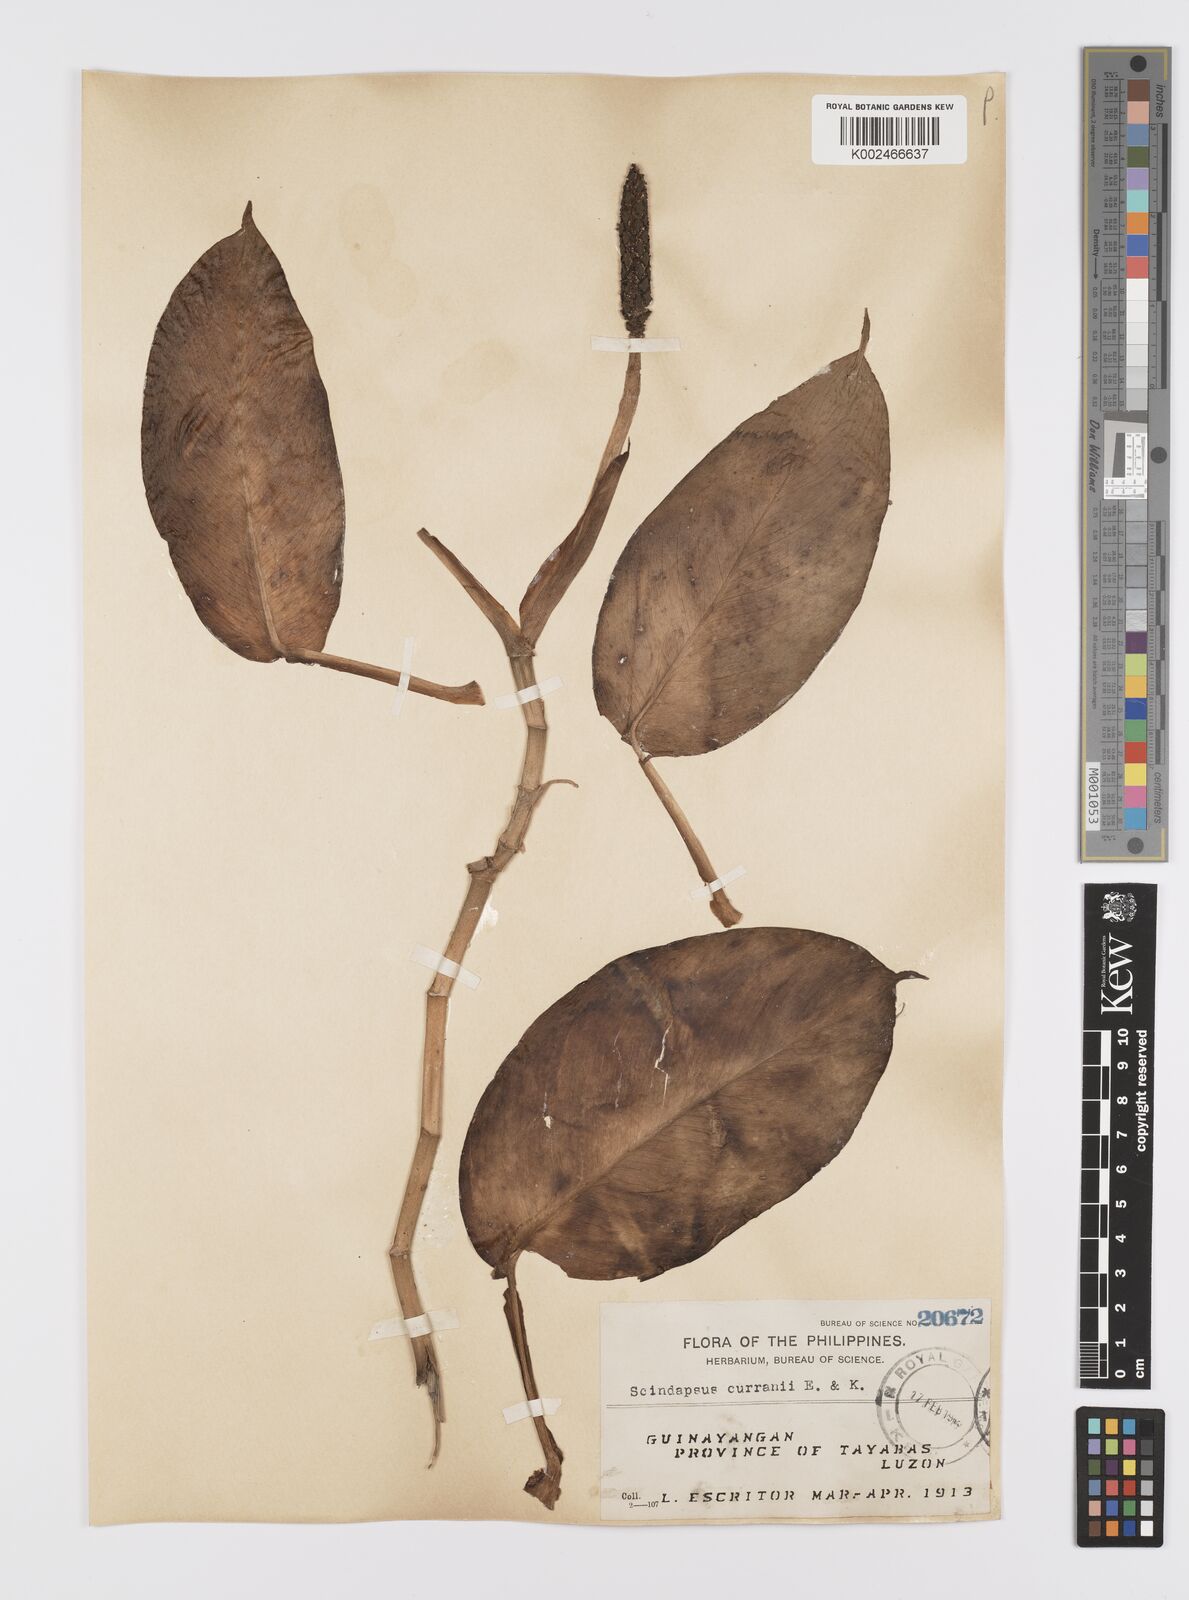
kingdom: Plantae
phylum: Tracheophyta
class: Liliopsida
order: Alismatales
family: Araceae
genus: Scindapsus
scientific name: Scindapsus curranii
